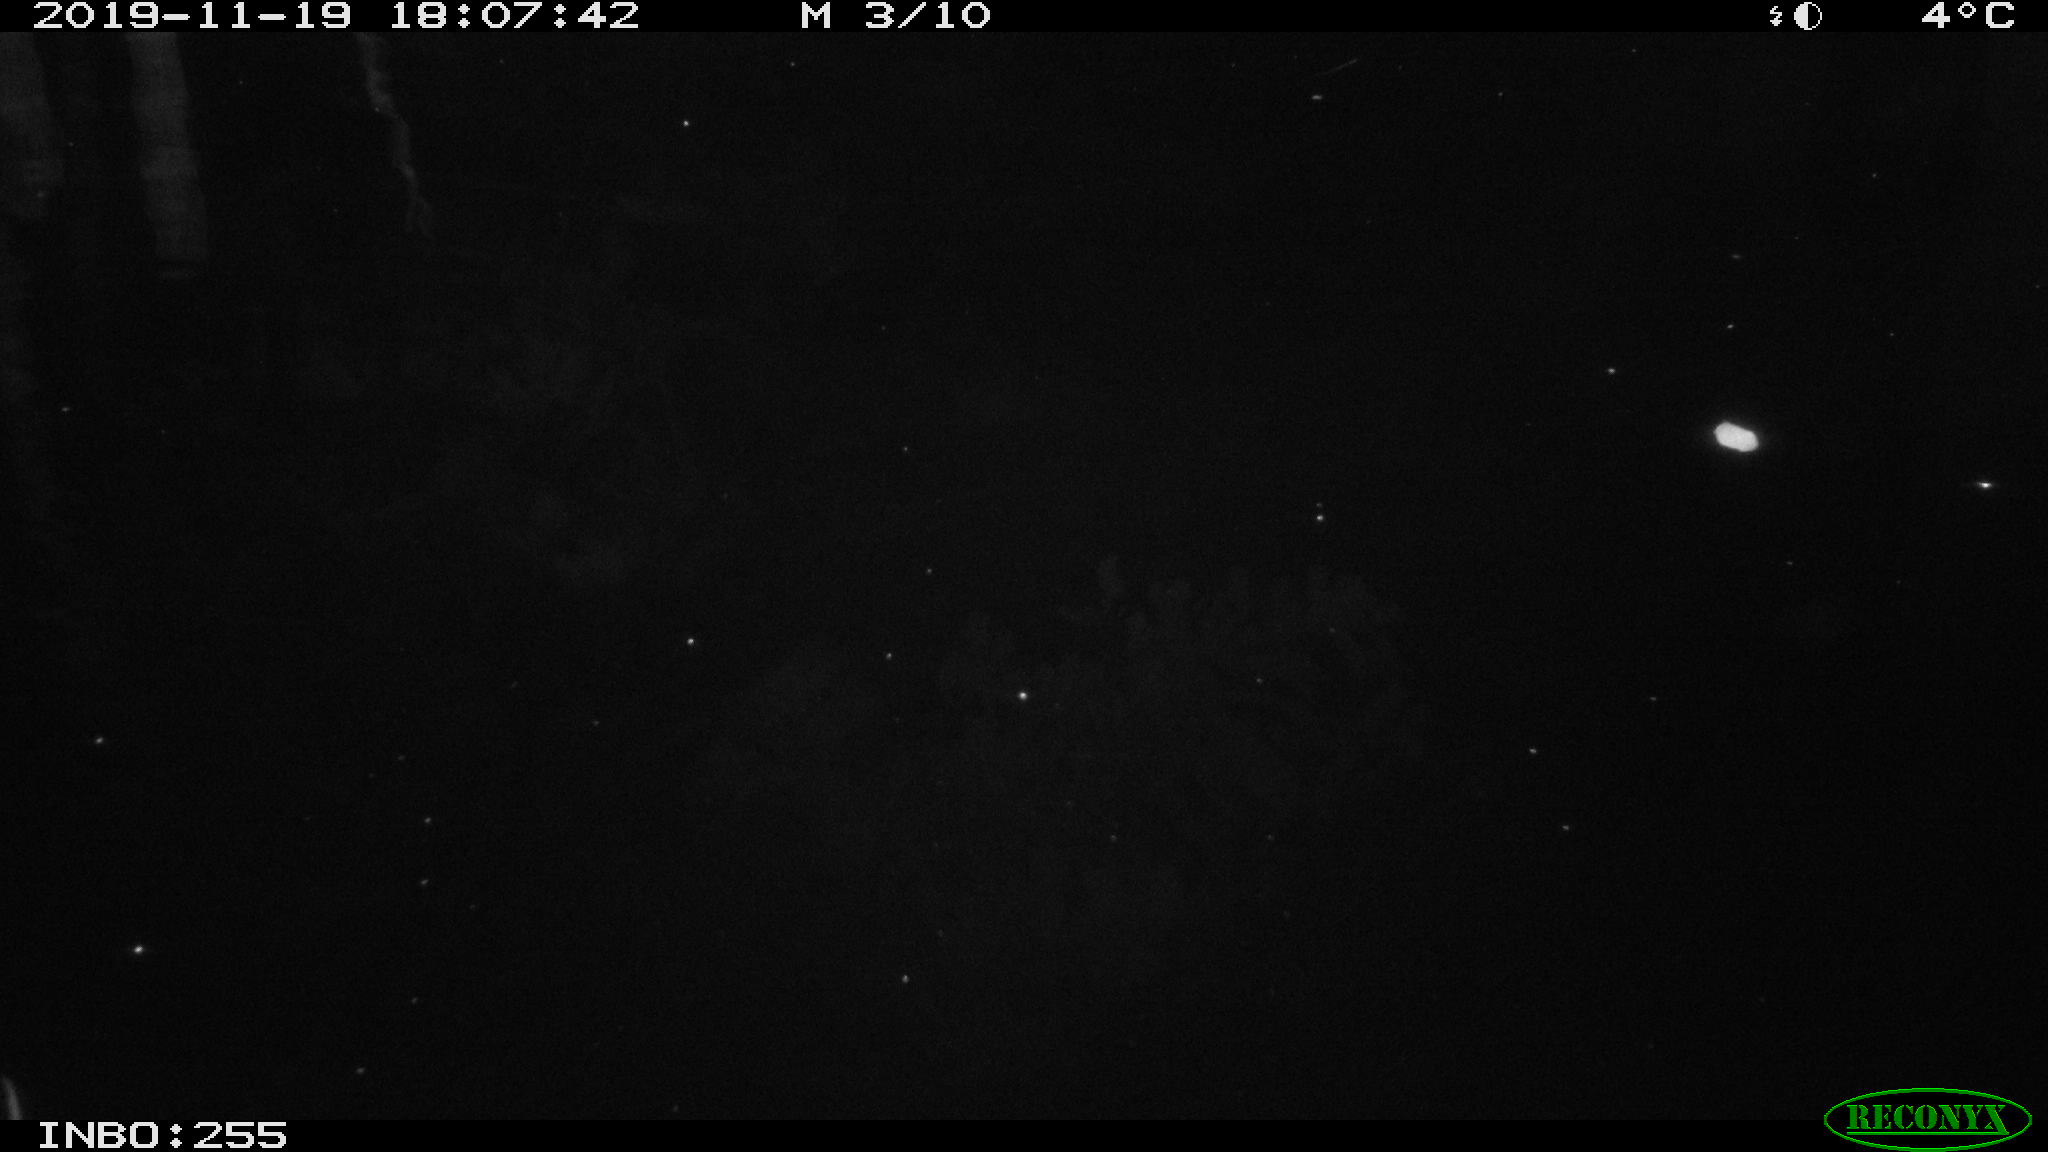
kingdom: Animalia
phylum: Chordata
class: Mammalia
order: Rodentia
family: Muridae
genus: Rattus
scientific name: Rattus norvegicus
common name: Brown rat
